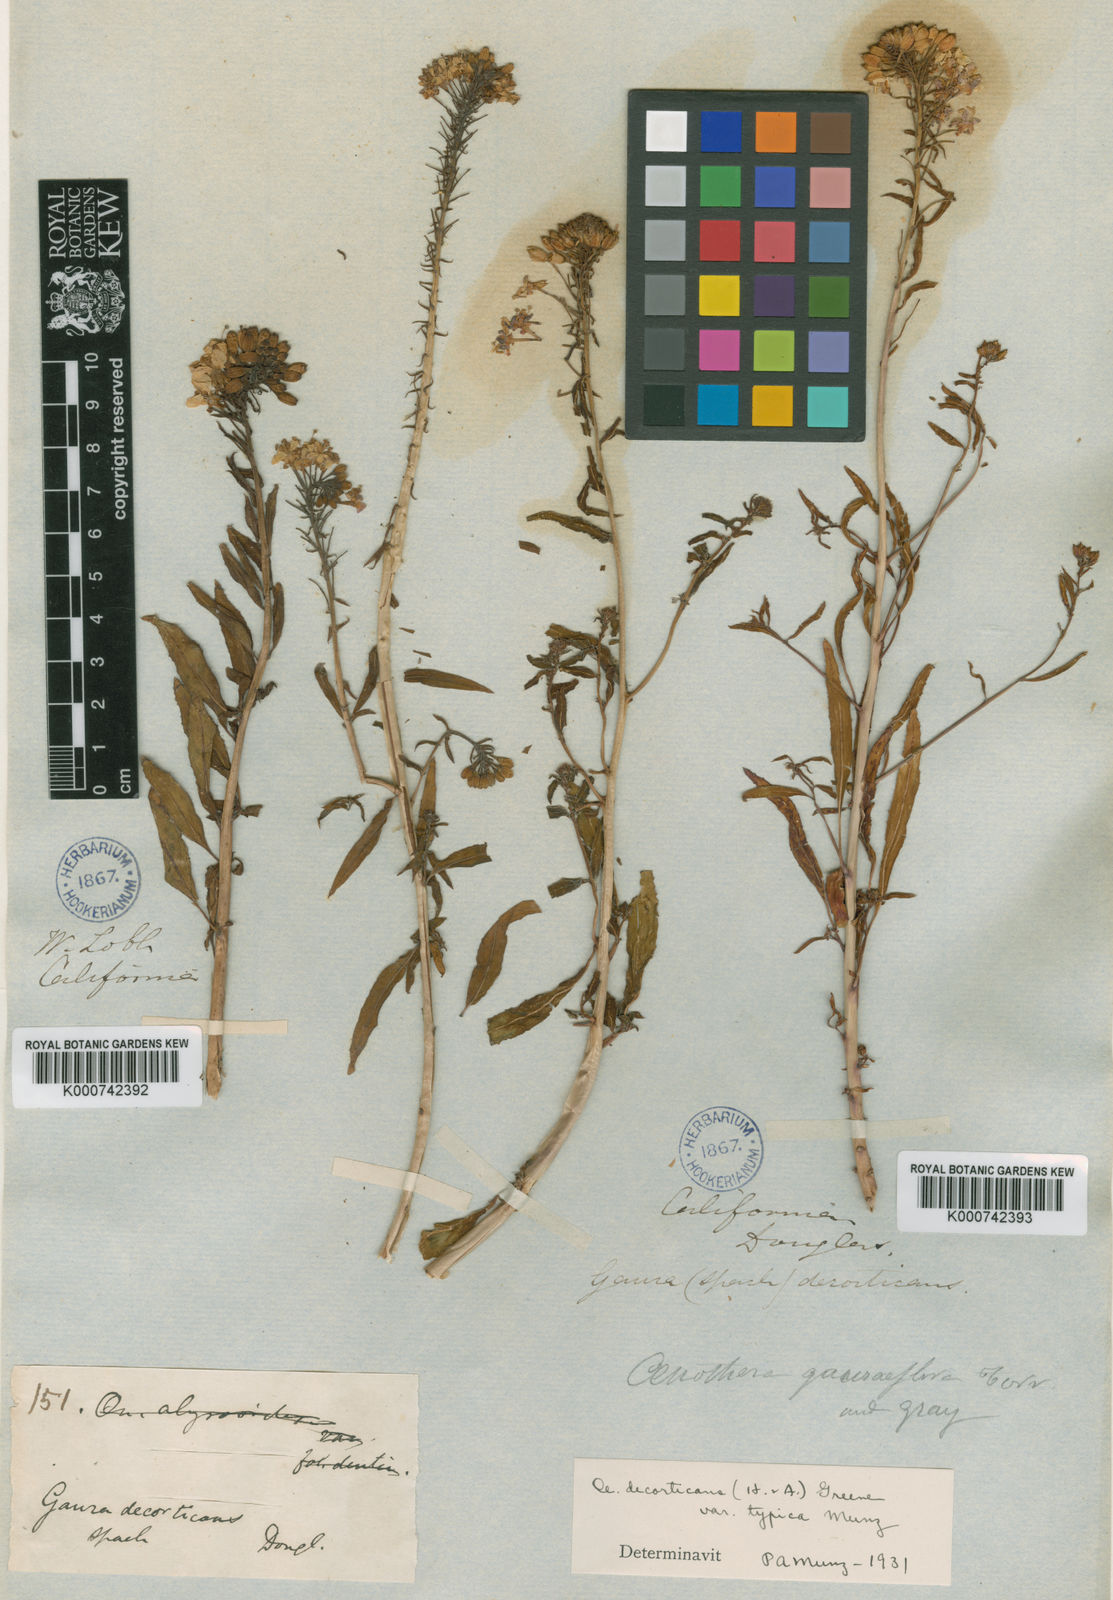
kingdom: Plantae
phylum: Tracheophyta
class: Magnoliopsida
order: Myrtales
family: Onagraceae
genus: Eremothera
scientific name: Eremothera boothii
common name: Booth's evening primrose
